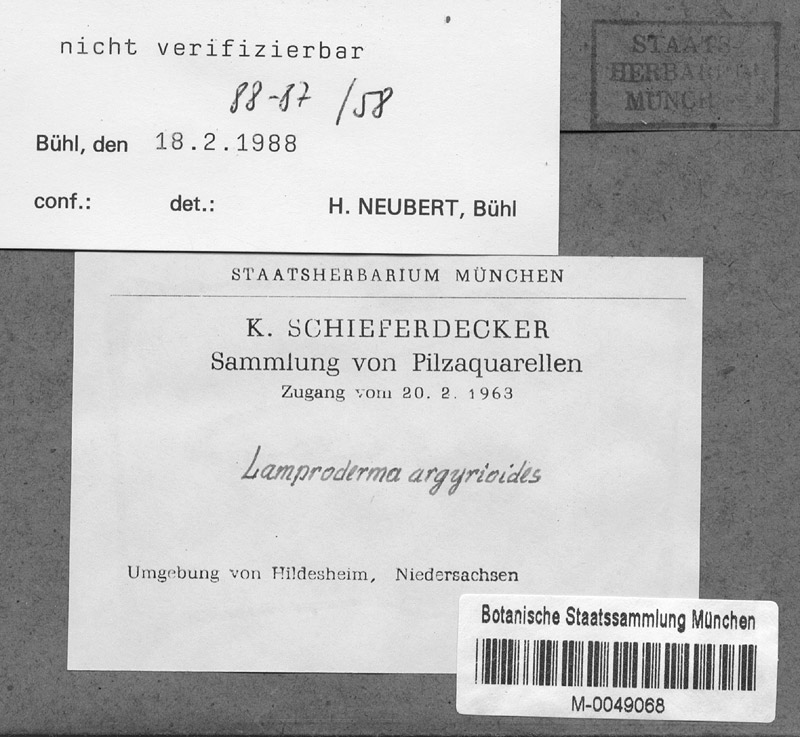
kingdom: Protozoa
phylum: Mycetozoa
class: Myxomycetes
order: Stemonitidales
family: Stemonitidaceae
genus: Lamproderma
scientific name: Lamproderma arcyrioides
